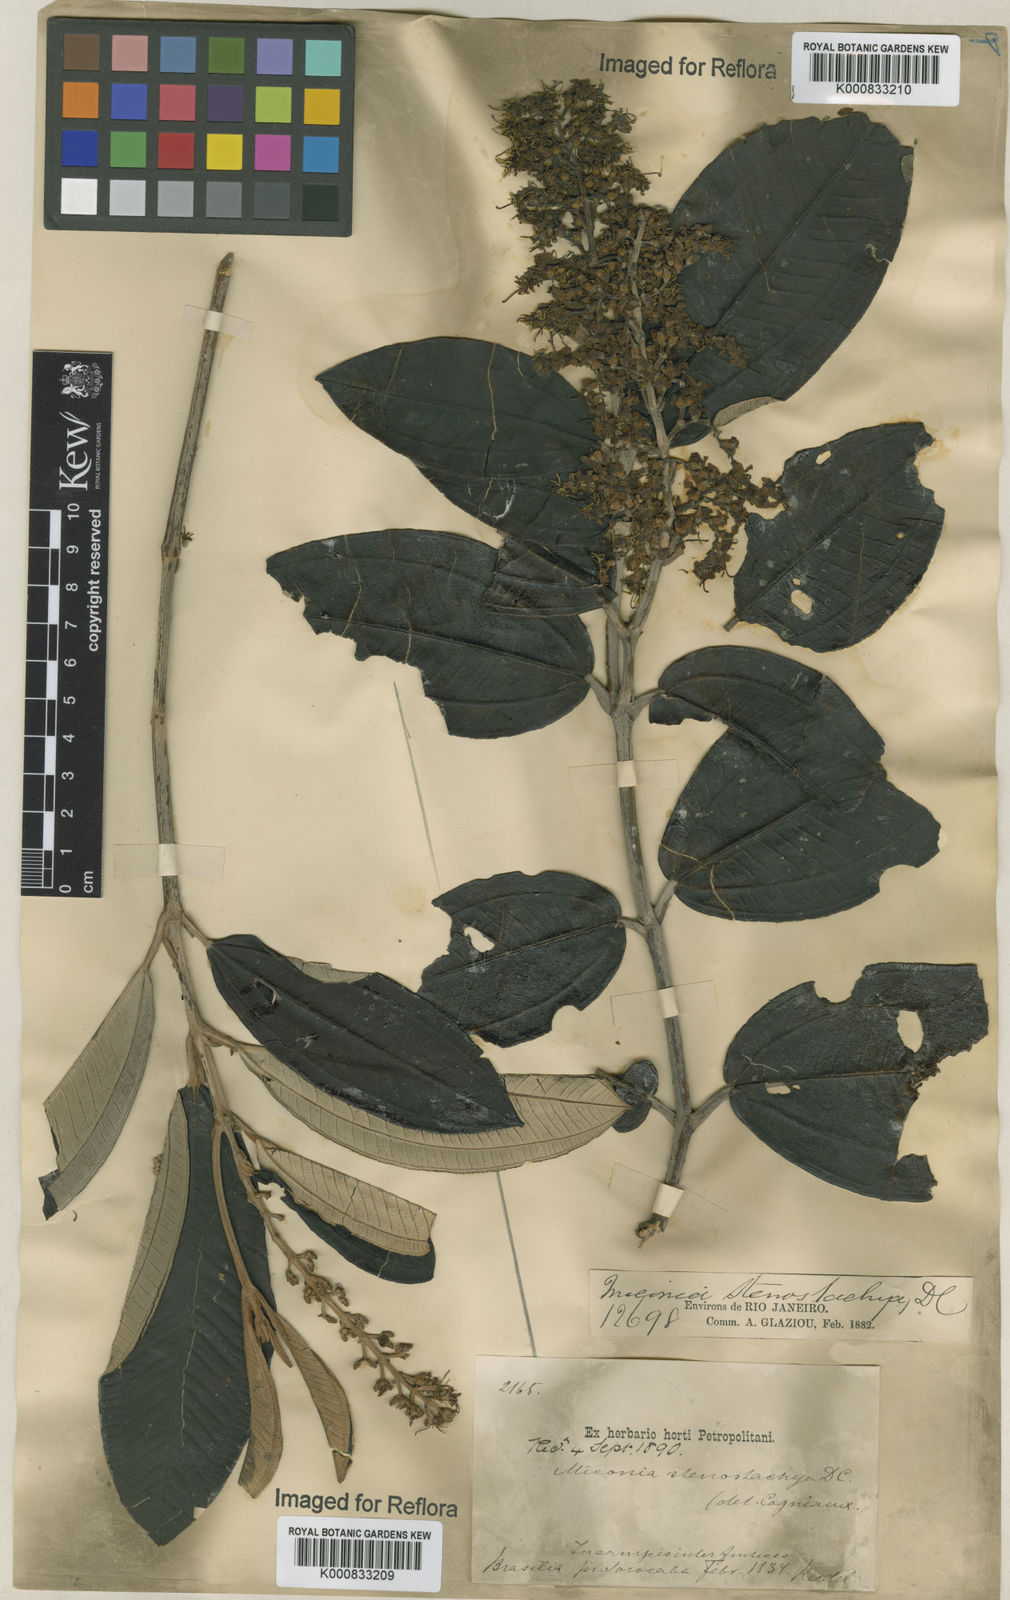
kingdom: Plantae
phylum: Tracheophyta
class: Magnoliopsida
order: Myrtales
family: Melastomataceae
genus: Miconia
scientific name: Miconia stenostachya
